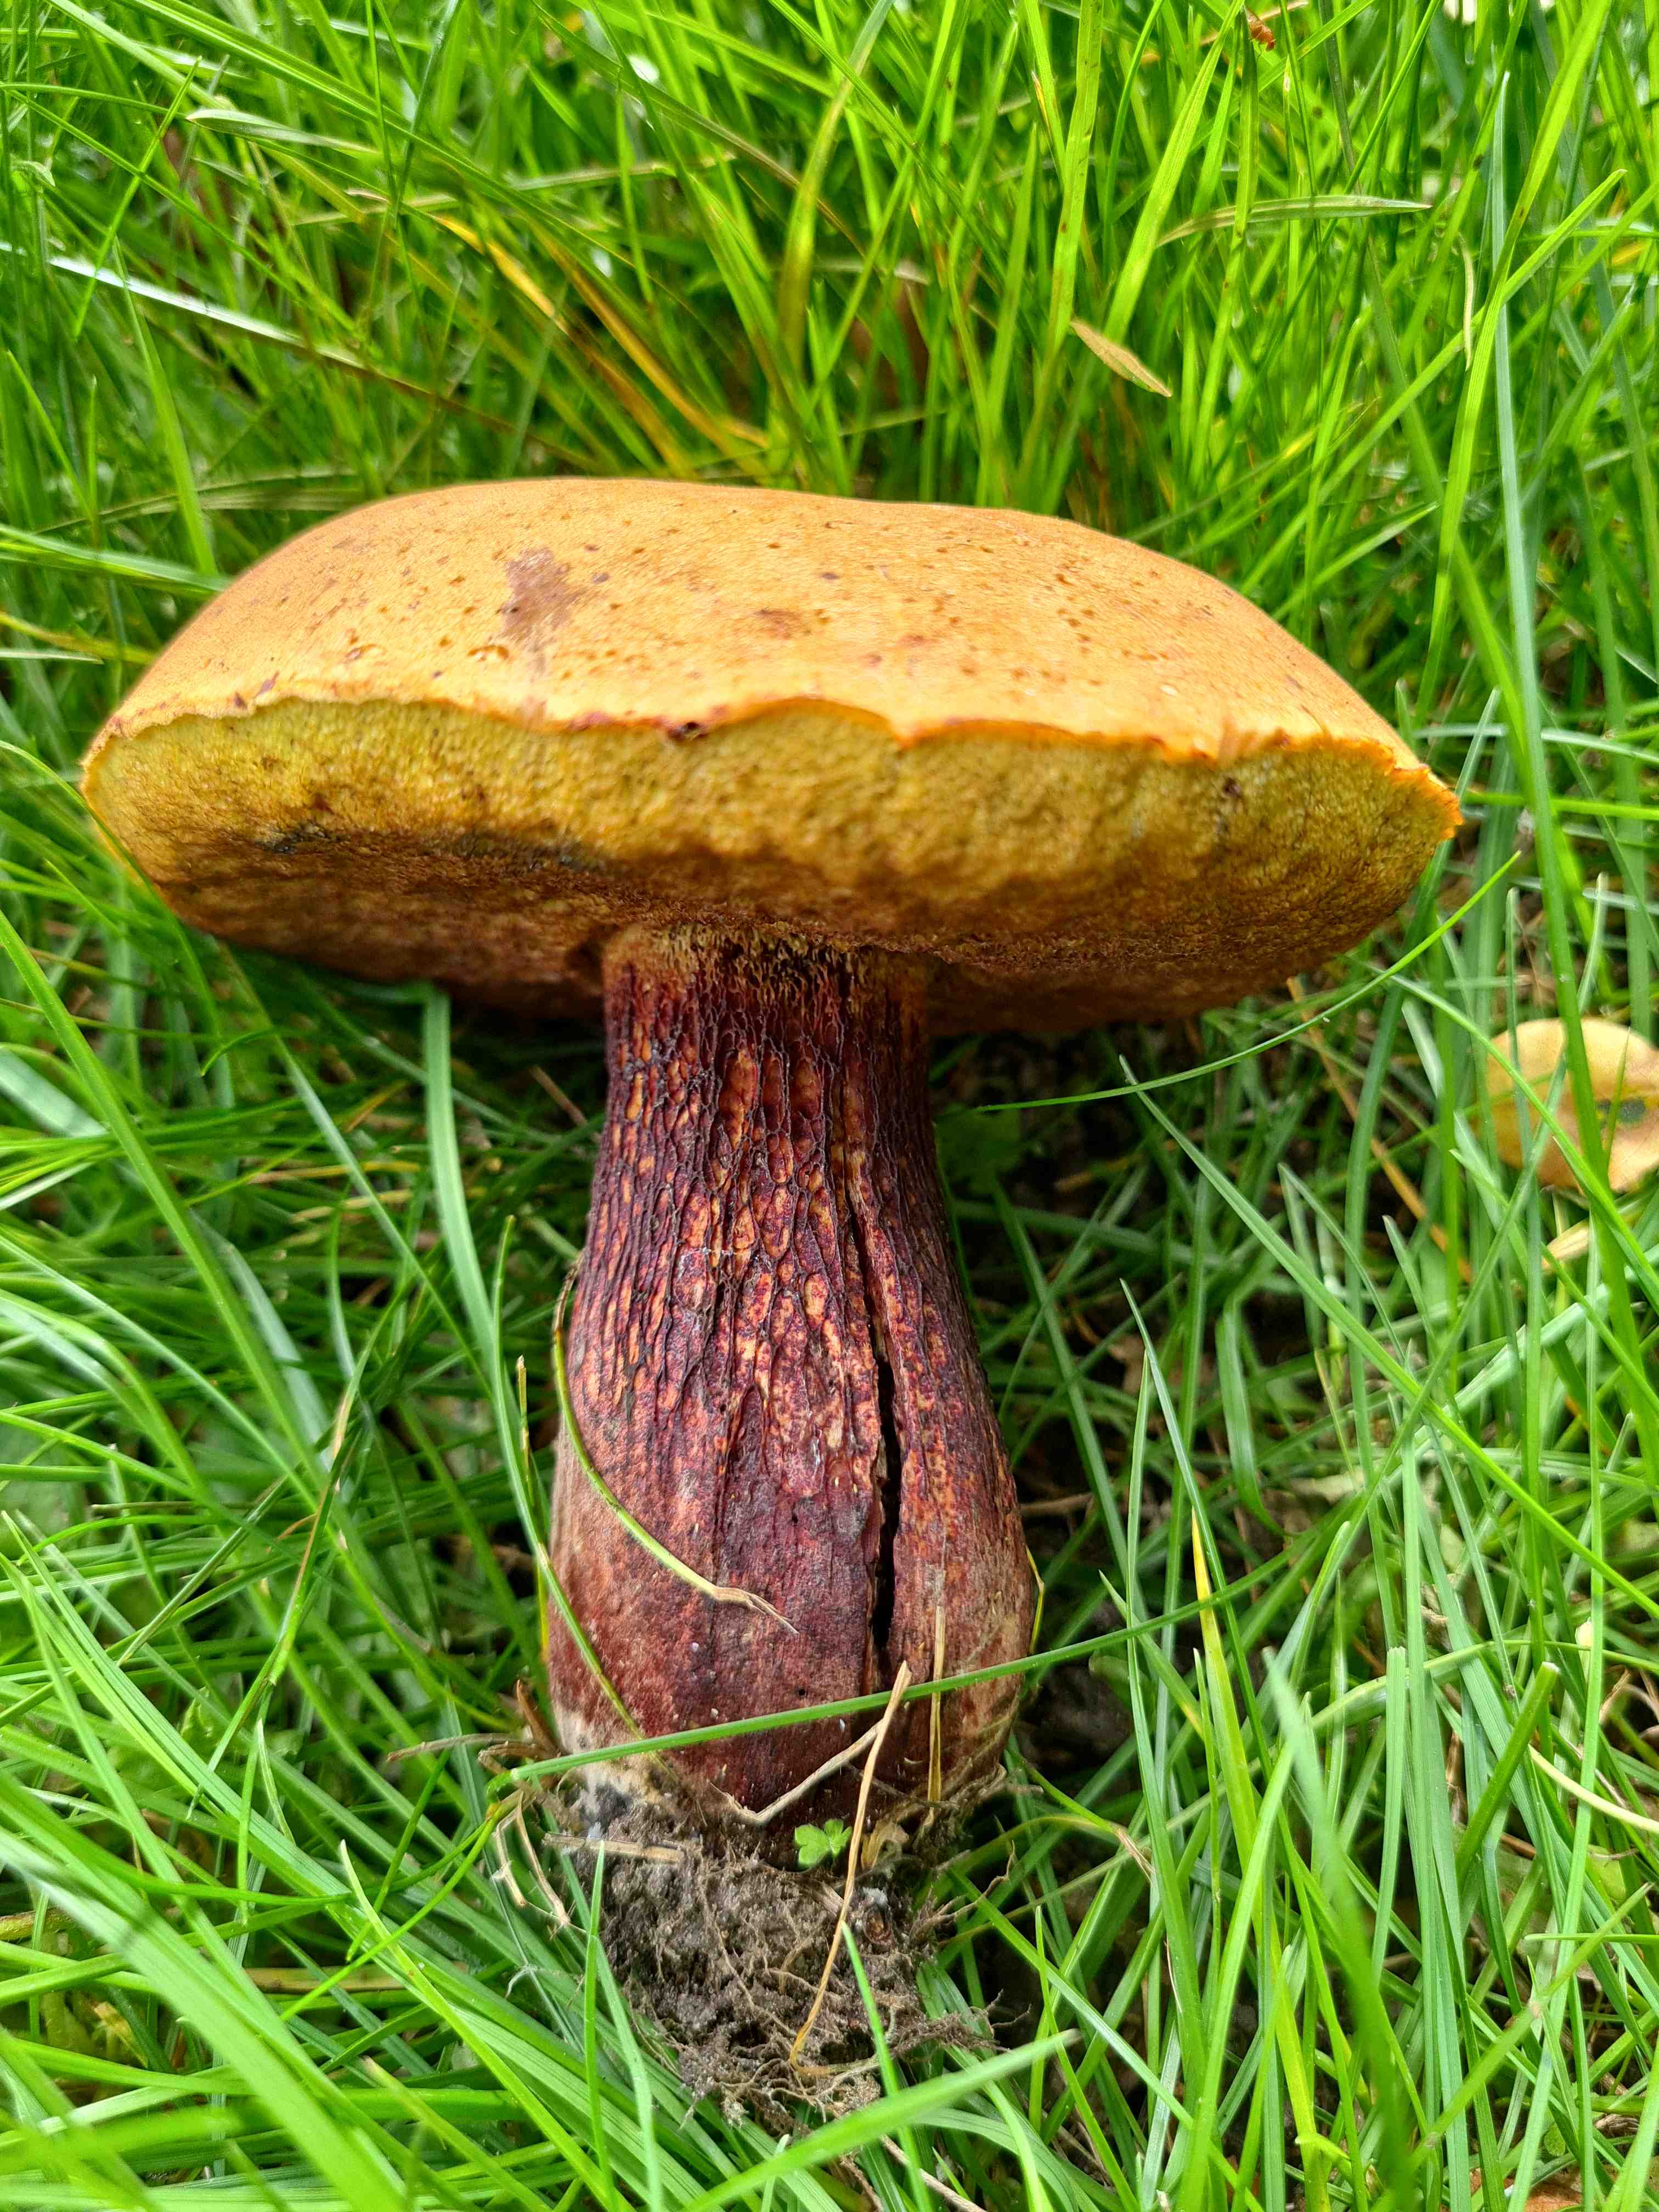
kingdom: Fungi
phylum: Basidiomycota
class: Agaricomycetes
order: Boletales
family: Boletaceae
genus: Suillellus
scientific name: Suillellus luridus
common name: netstokket indigorørhat
